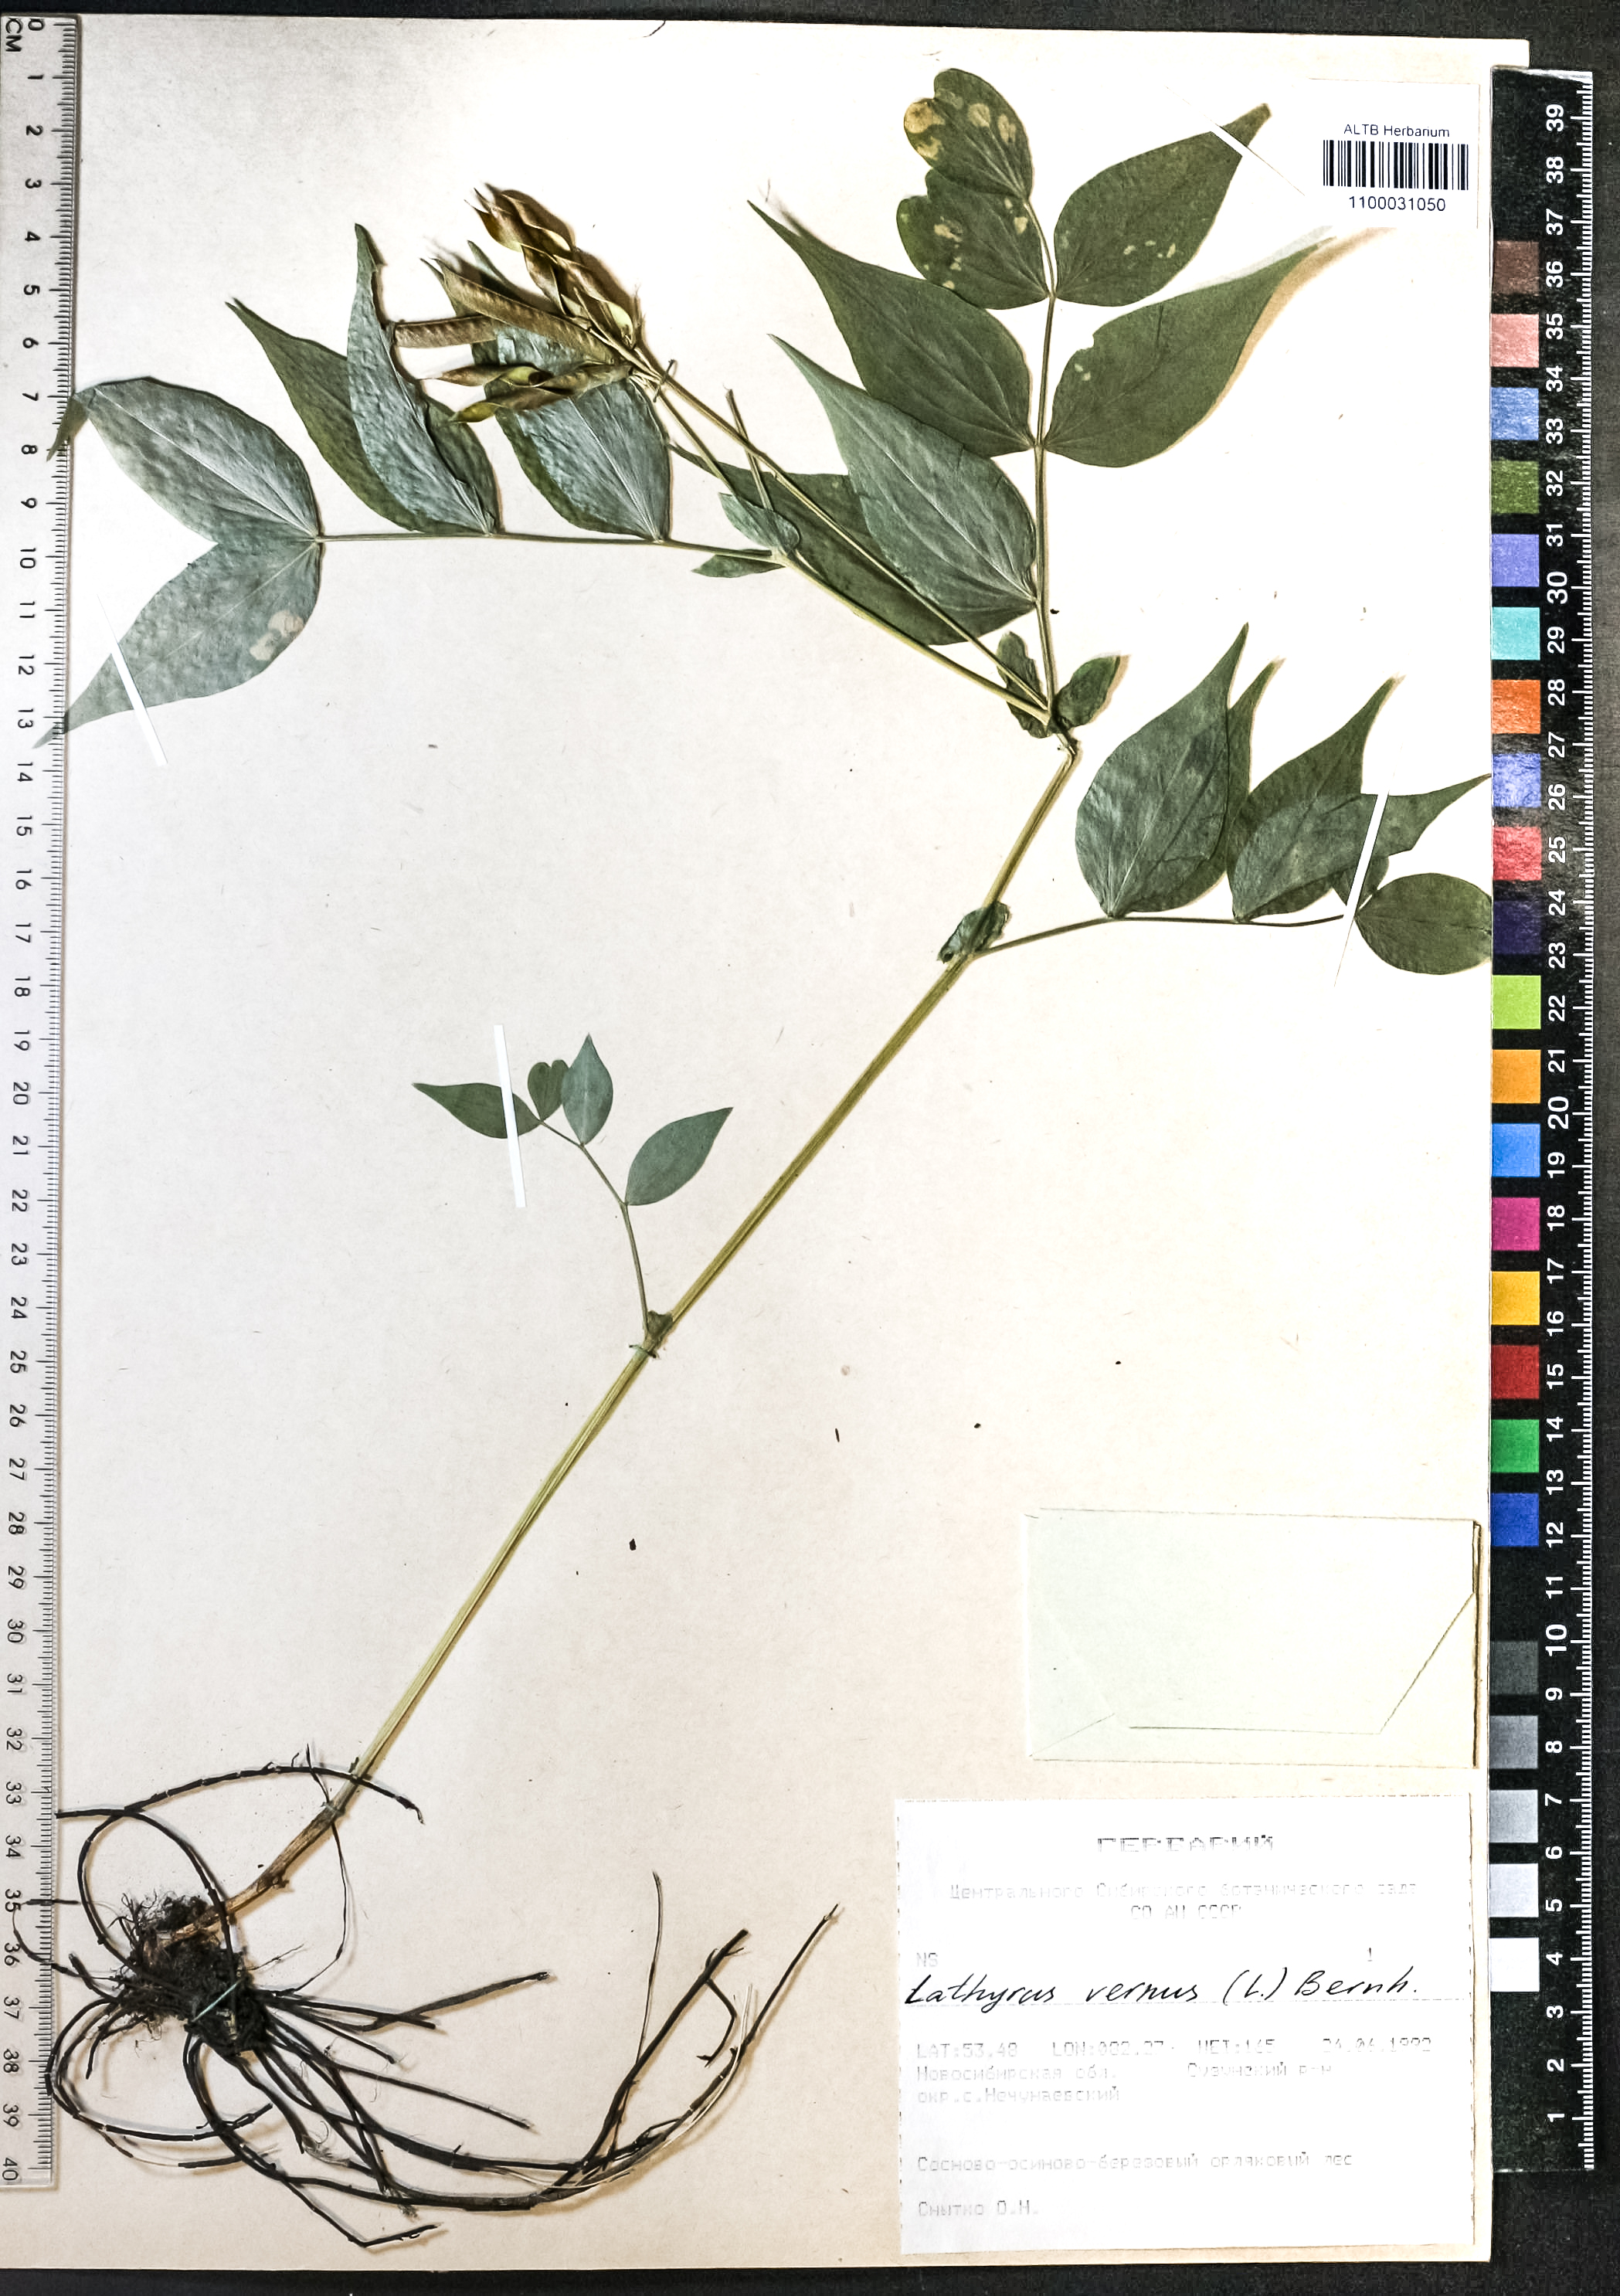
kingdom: Plantae
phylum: Tracheophyta
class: Magnoliopsida
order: Fabales
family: Fabaceae
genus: Lathyrus
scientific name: Lathyrus vernus
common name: Spring pea
